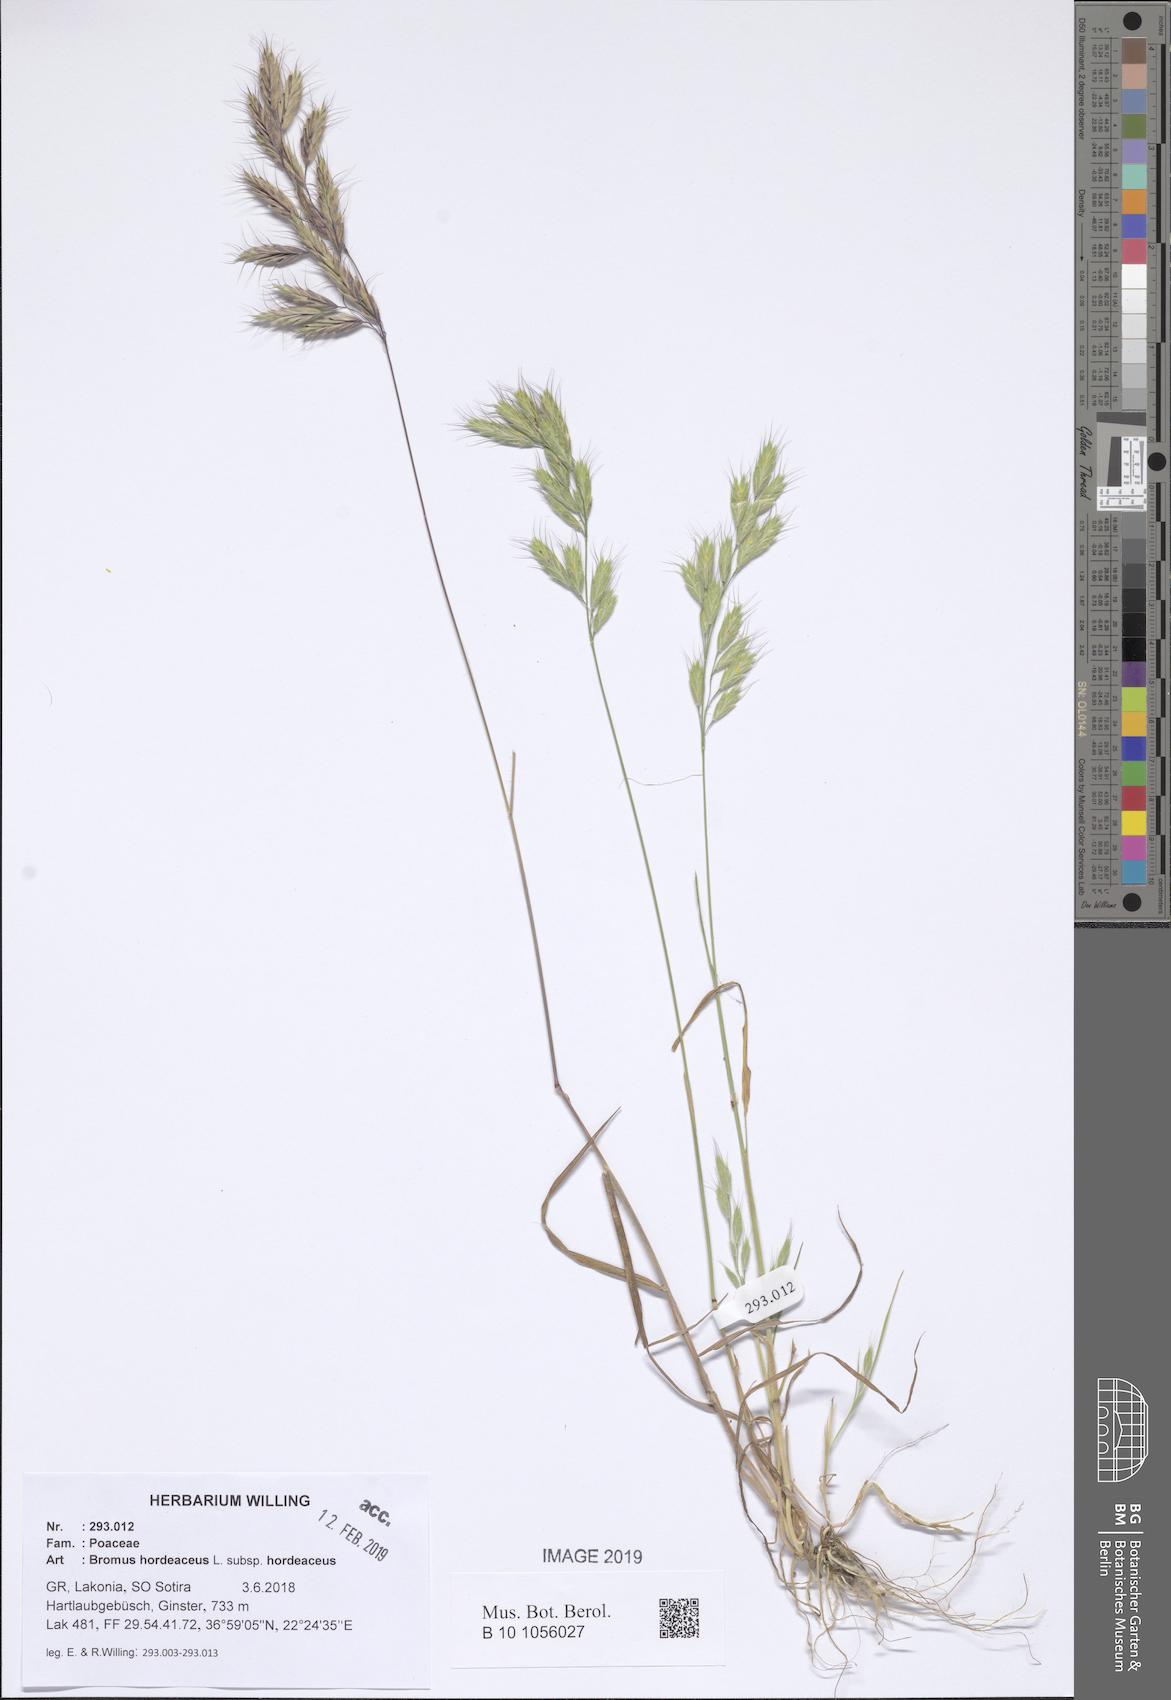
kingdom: Plantae
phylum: Tracheophyta
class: Liliopsida
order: Poales
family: Poaceae
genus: Bromus
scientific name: Bromus hordeaceus
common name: Soft brome
